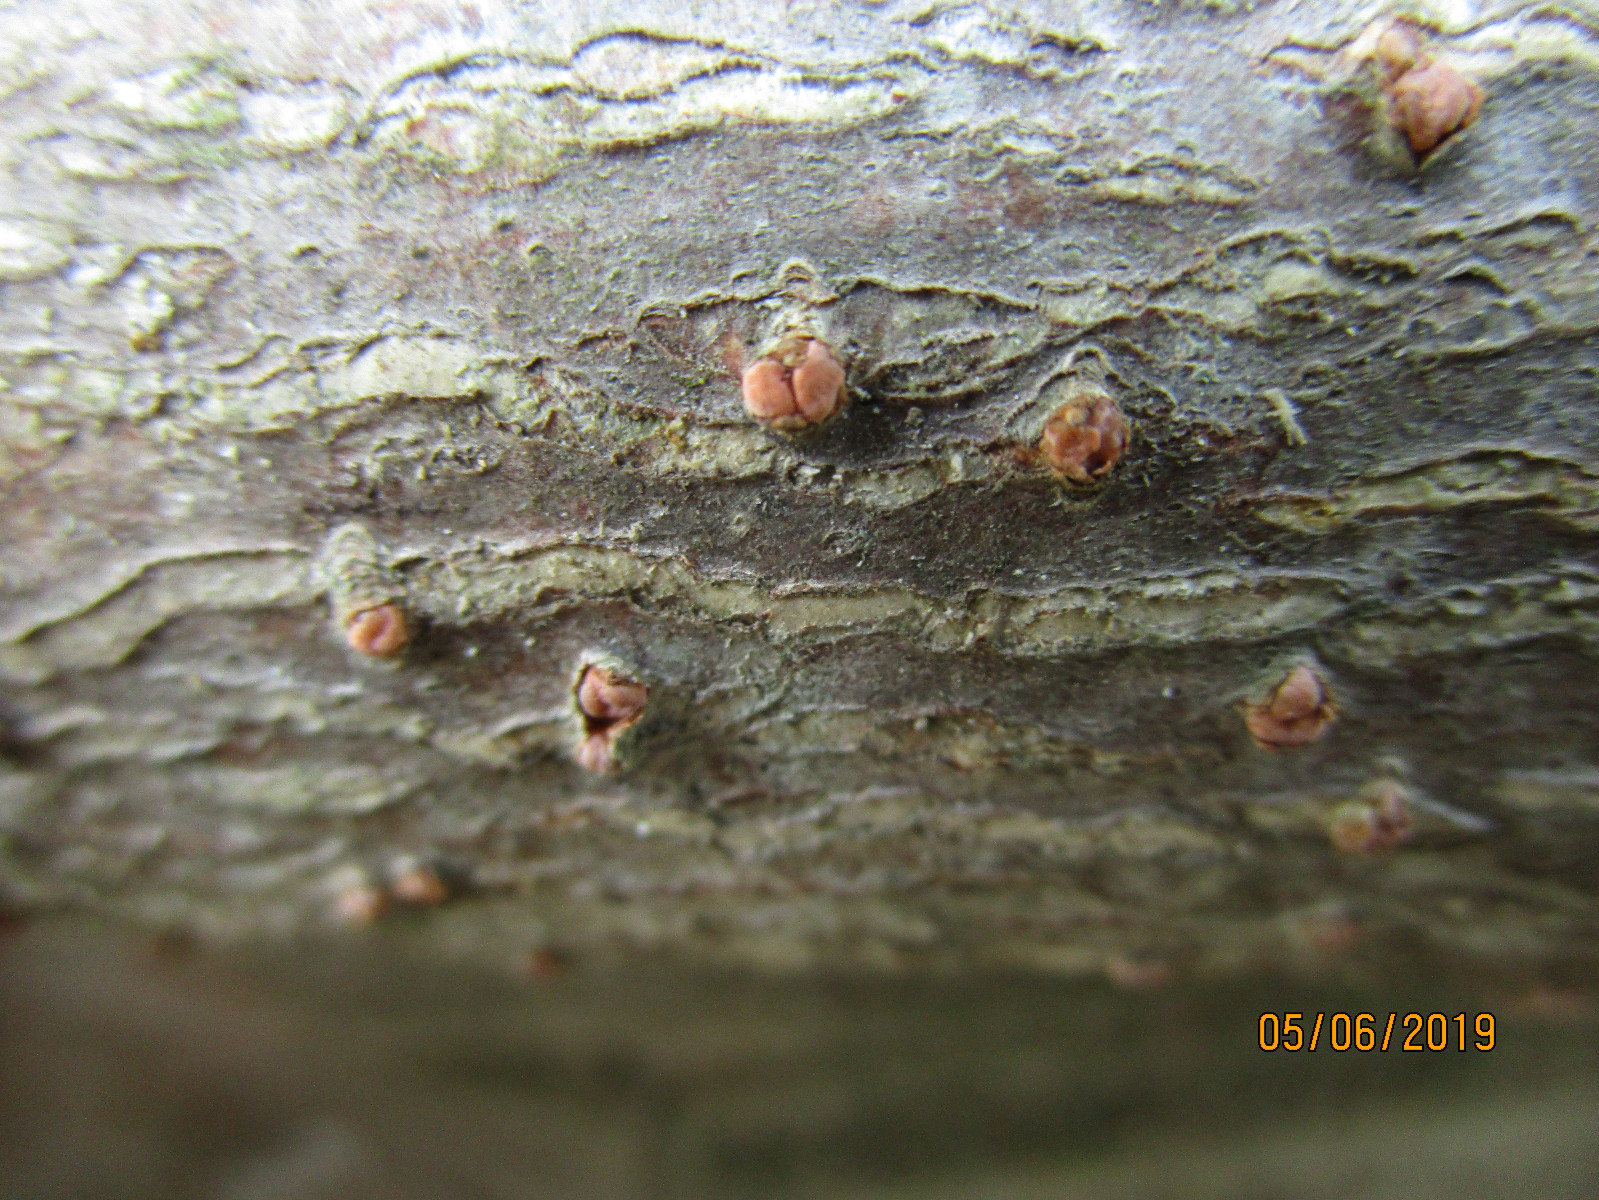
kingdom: Fungi
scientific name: Fungi
